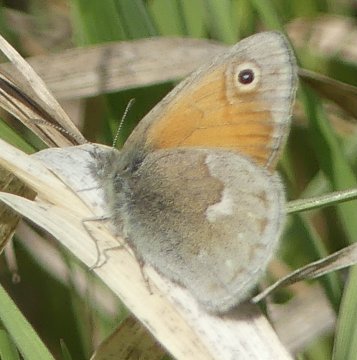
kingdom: Animalia
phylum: Arthropoda
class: Insecta
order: Lepidoptera
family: Nymphalidae
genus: Coenonympha
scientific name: Coenonympha tullia
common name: Large Heath
